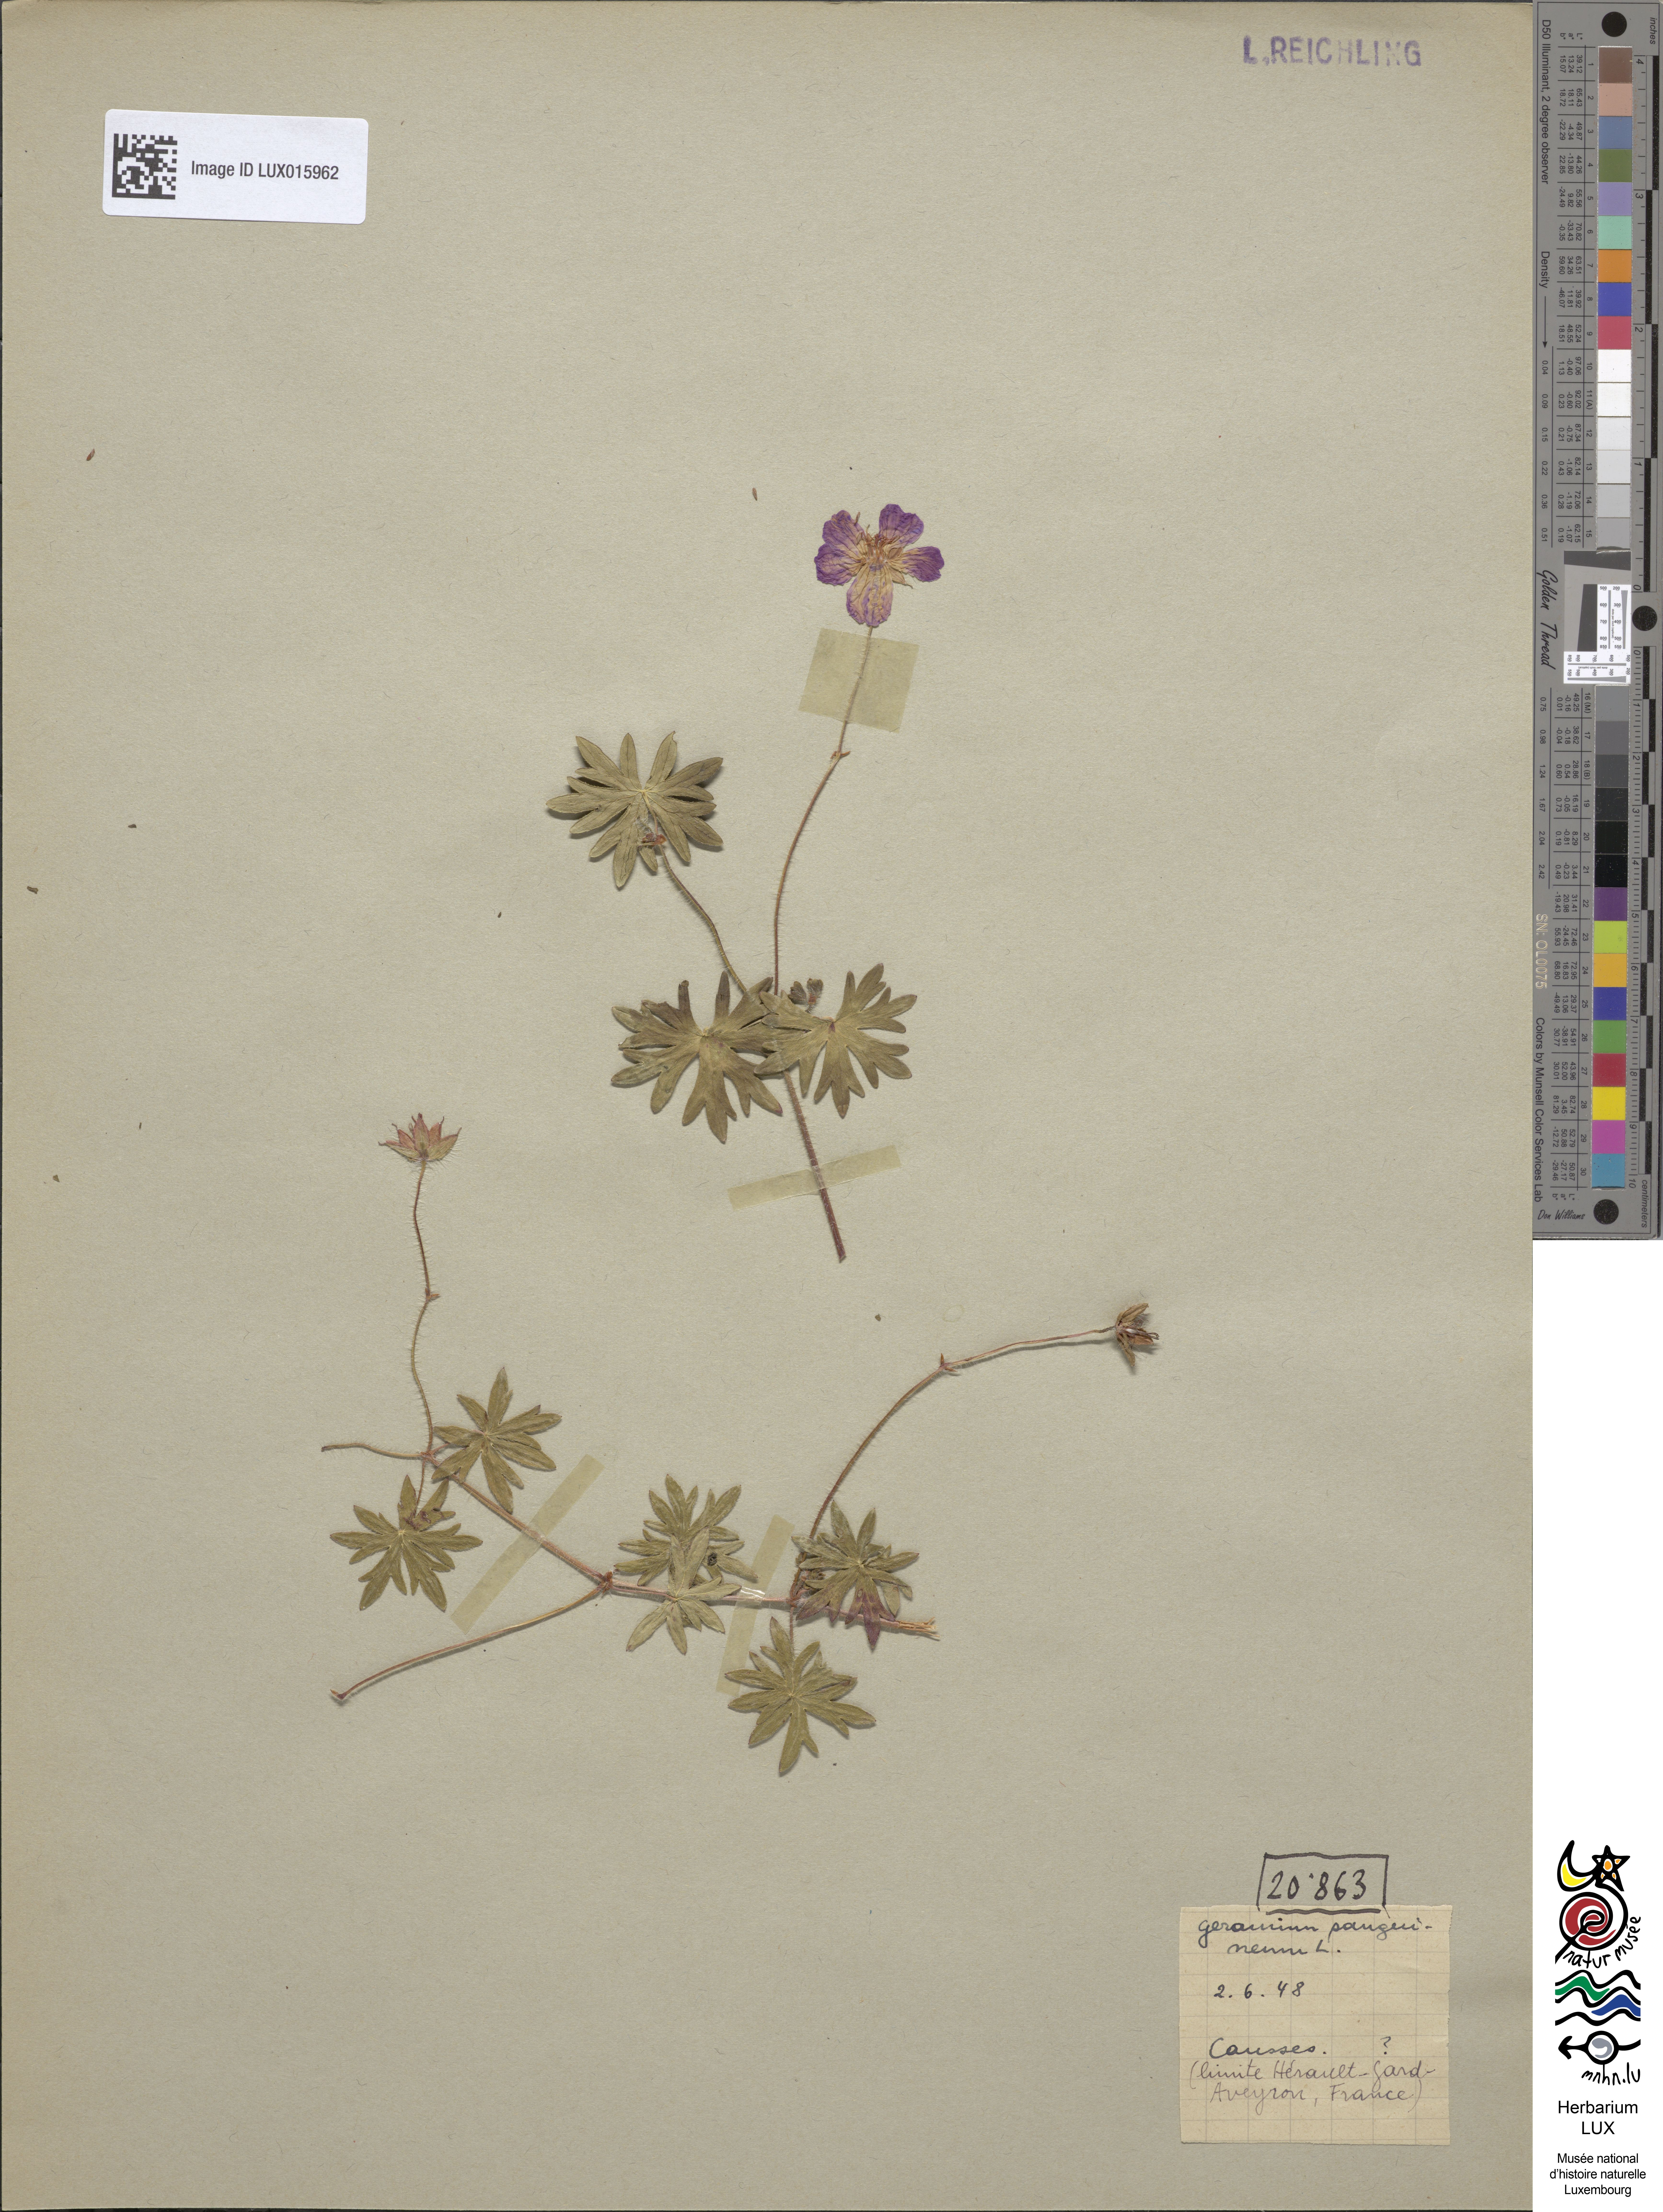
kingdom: Plantae
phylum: Tracheophyta
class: Magnoliopsida
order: Geraniales
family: Geraniaceae
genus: Geranium
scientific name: Geranium sanguineum
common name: Bloody crane's-bill
